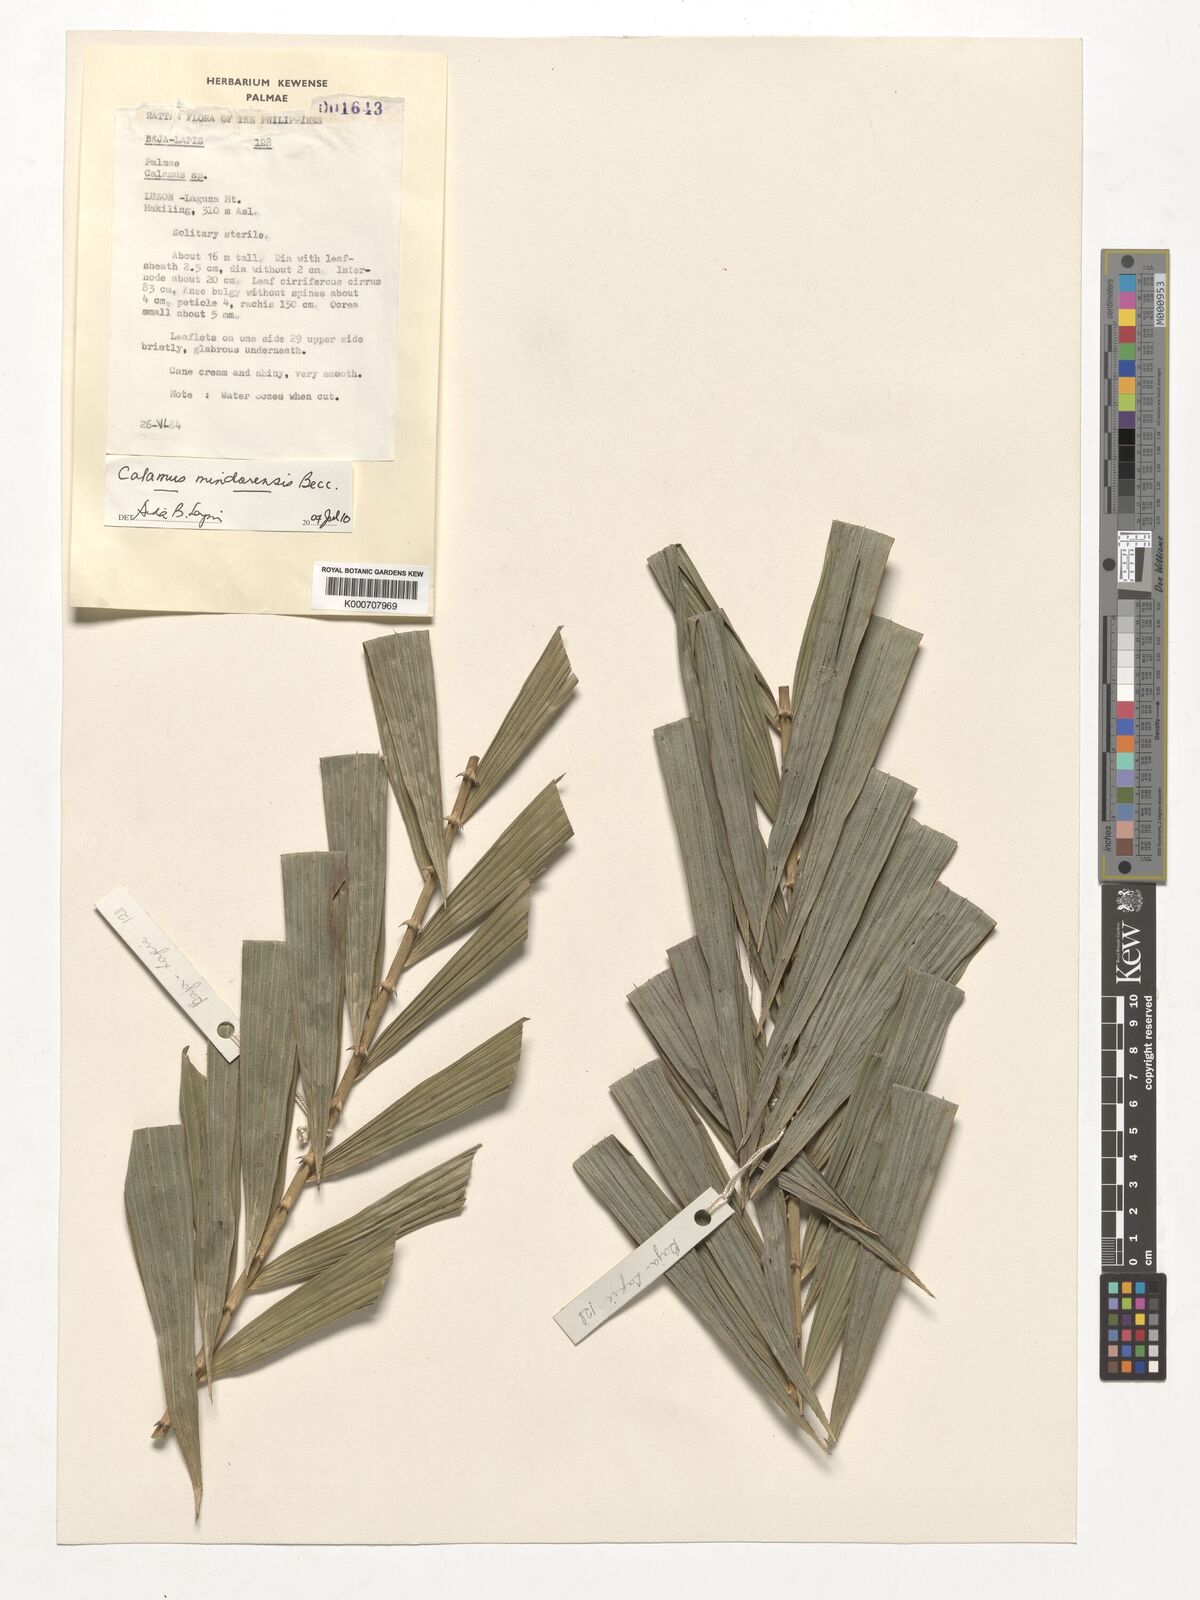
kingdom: Plantae
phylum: Tracheophyta
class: Liliopsida
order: Arecales
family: Arecaceae
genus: Calamus
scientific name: Calamus moseleyanus
